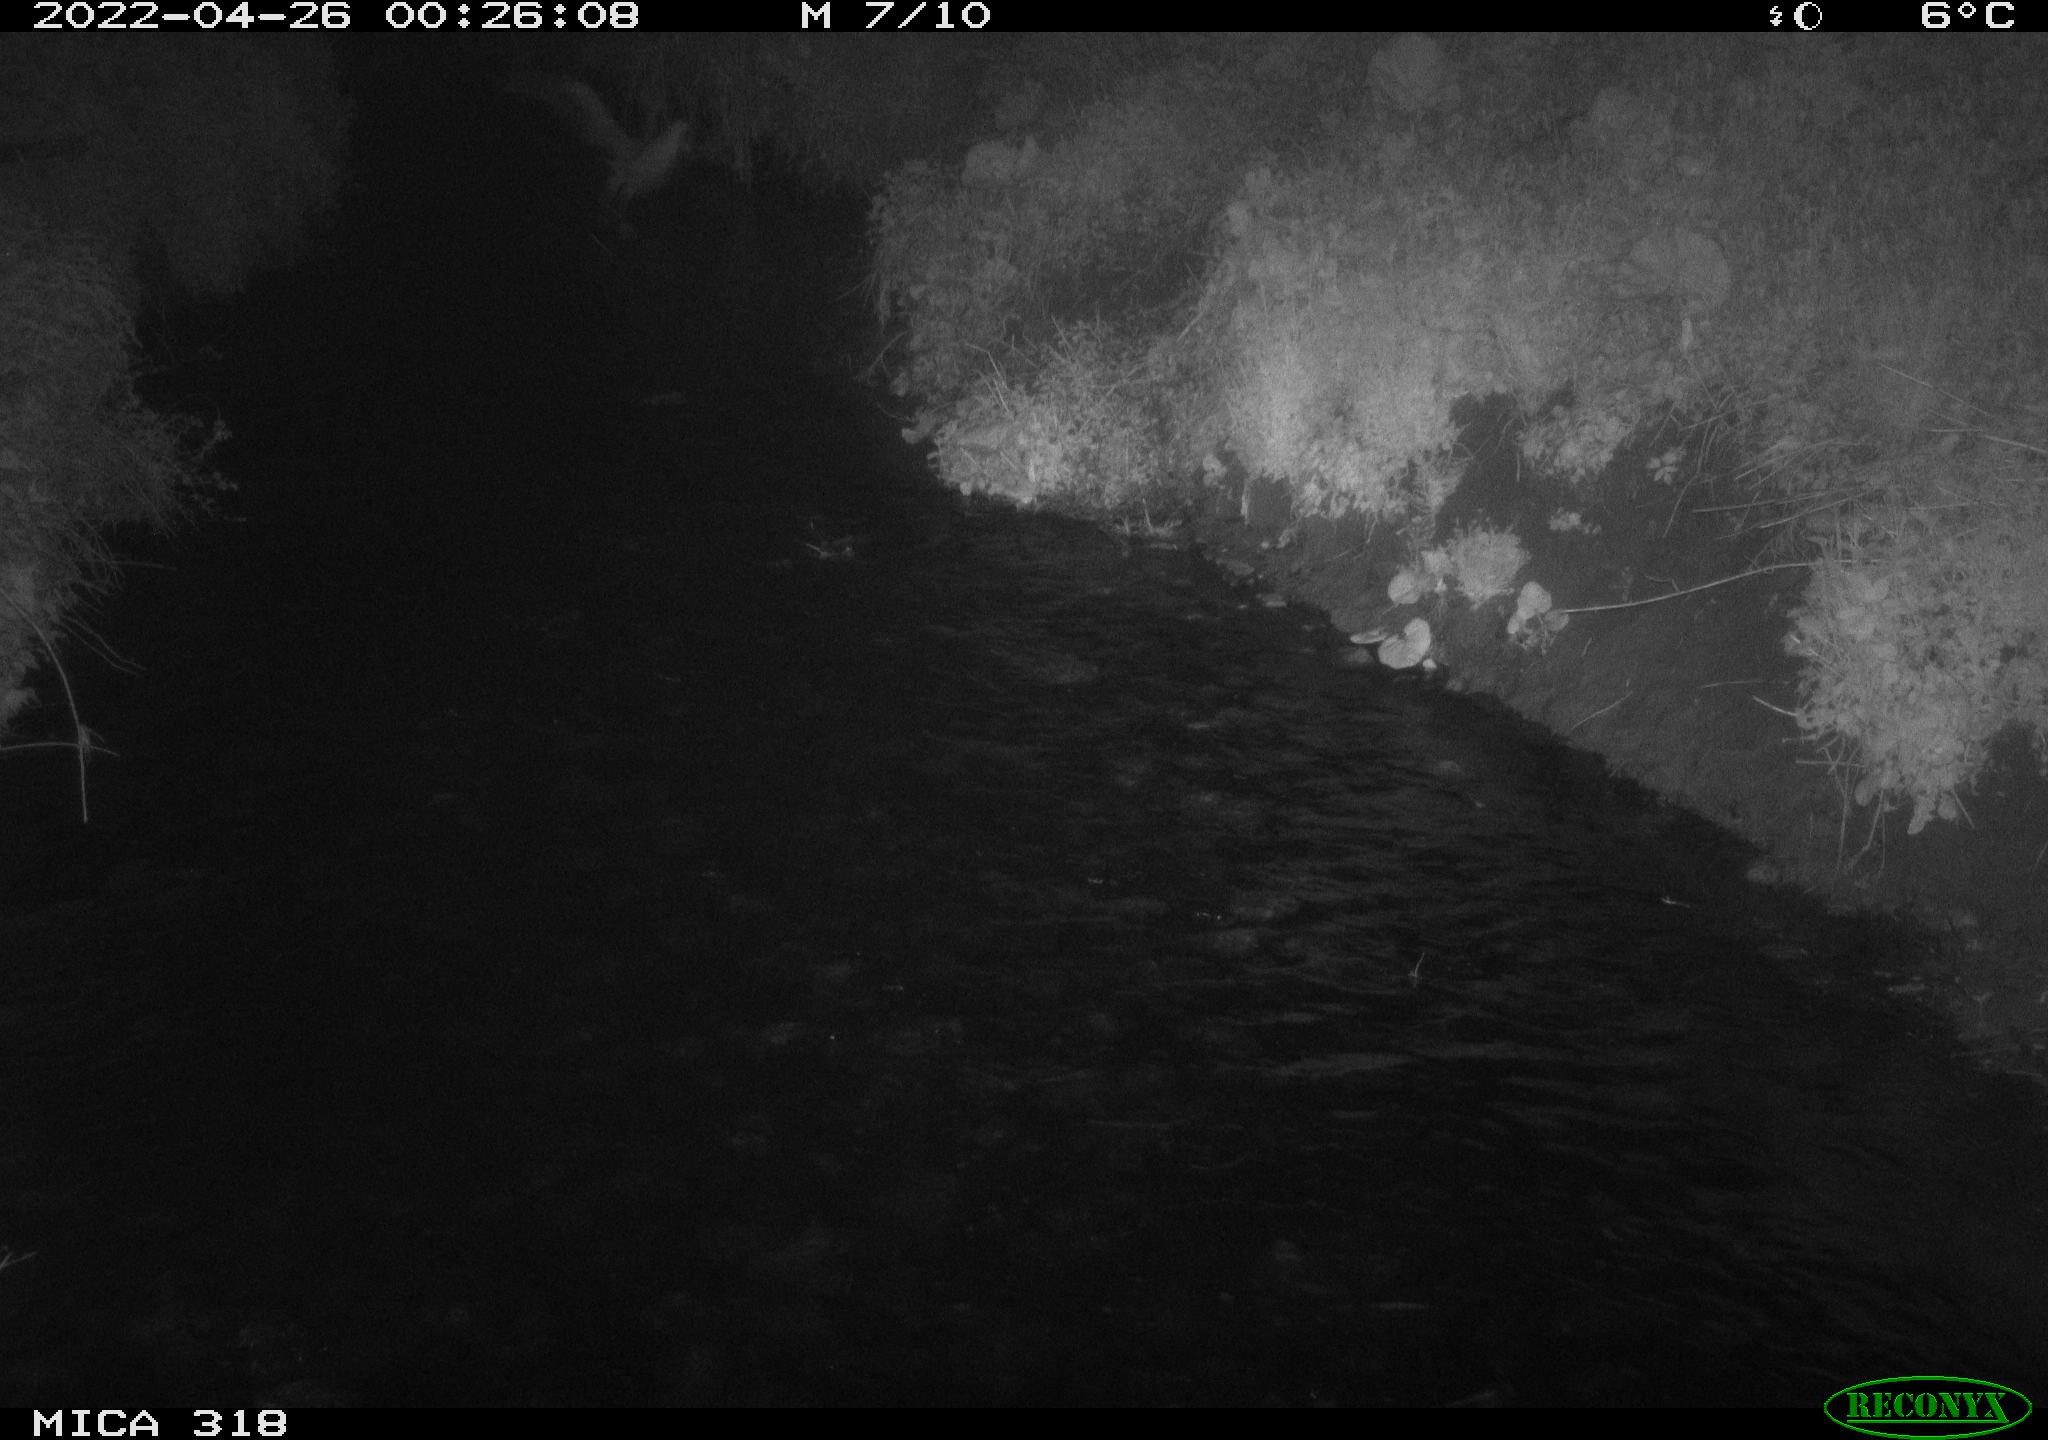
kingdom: Animalia
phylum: Chordata
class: Aves
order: Pelecaniformes
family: Ardeidae
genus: Ardea
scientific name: Ardea
